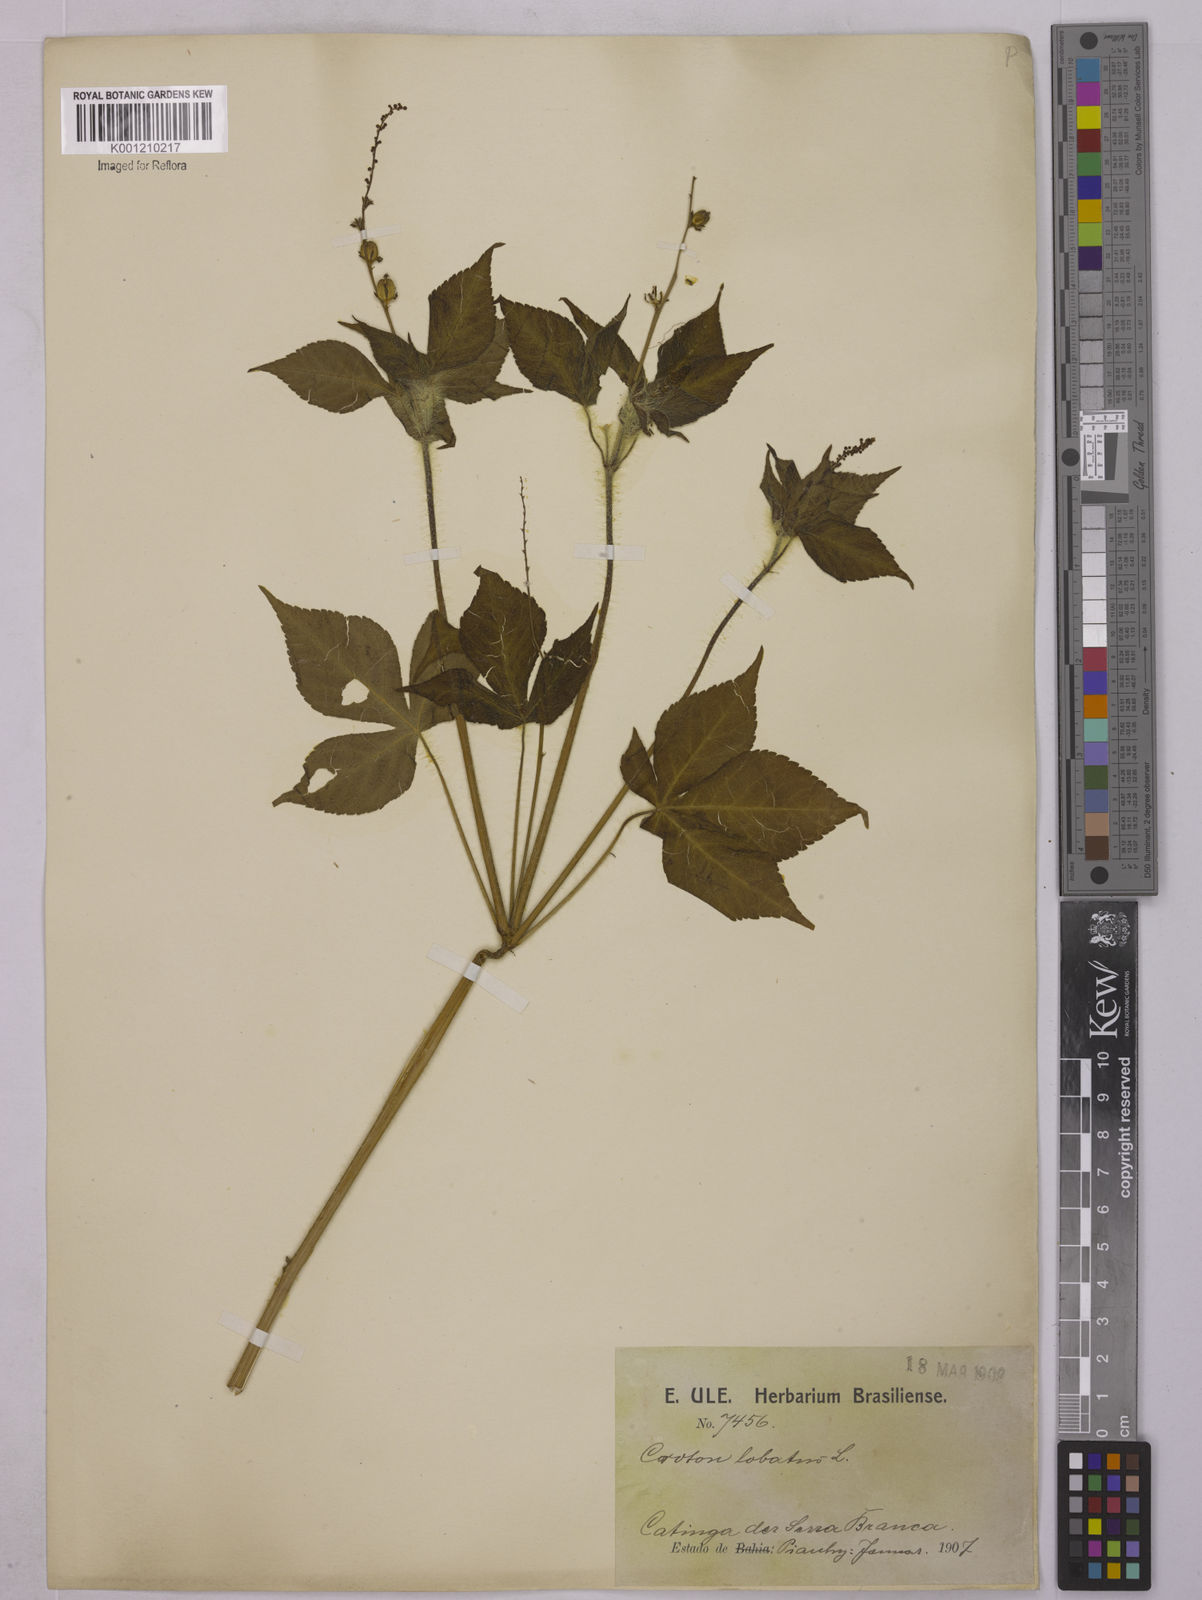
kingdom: Plantae
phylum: Tracheophyta
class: Magnoliopsida
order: Malpighiales
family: Euphorbiaceae
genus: Astraea
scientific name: Astraea lobata
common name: Lobed croton
